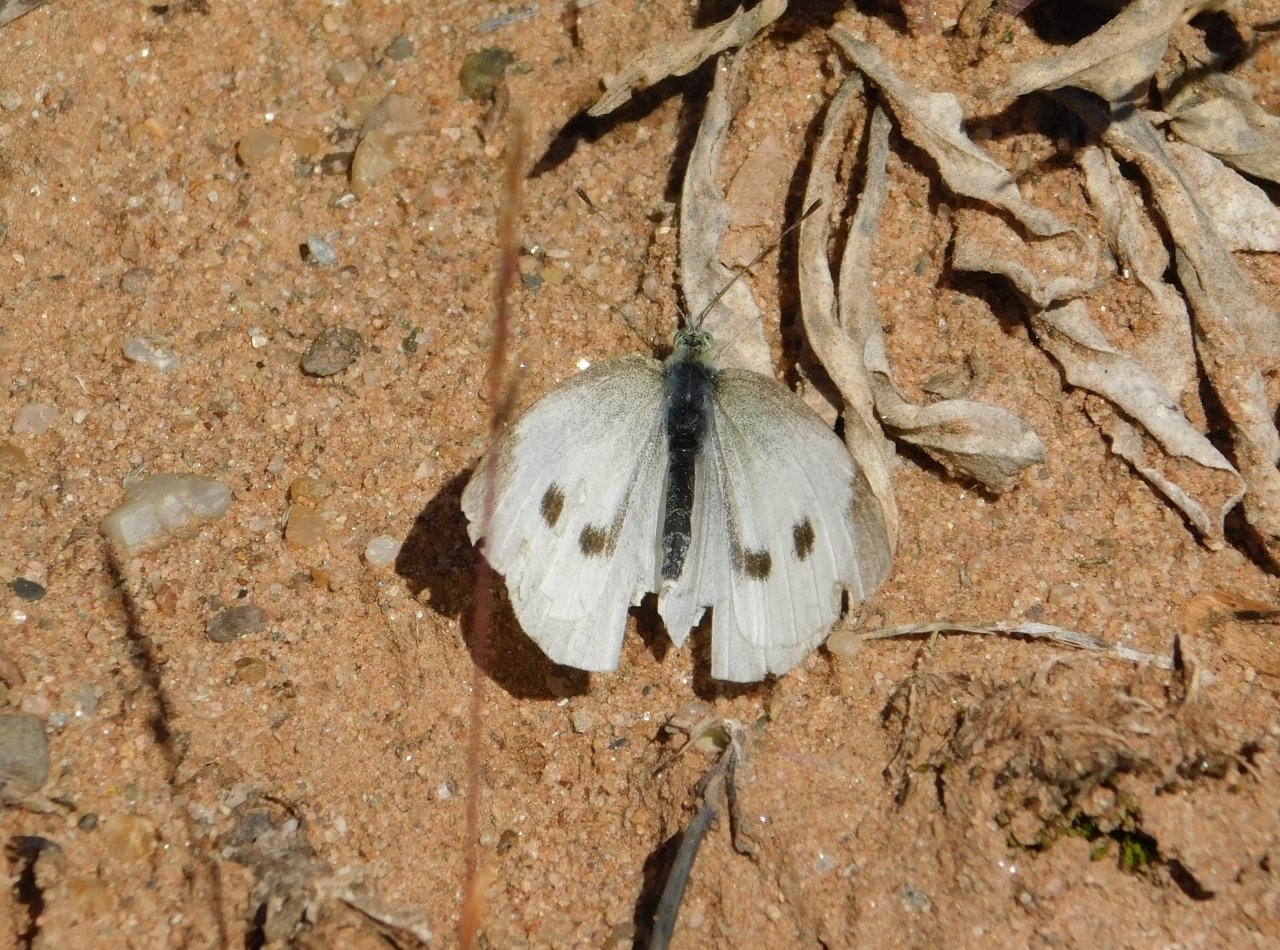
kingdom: Animalia
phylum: Arthropoda
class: Insecta
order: Lepidoptera
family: Pieridae
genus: Pieris
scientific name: Pieris rapae
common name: Cabbage White
